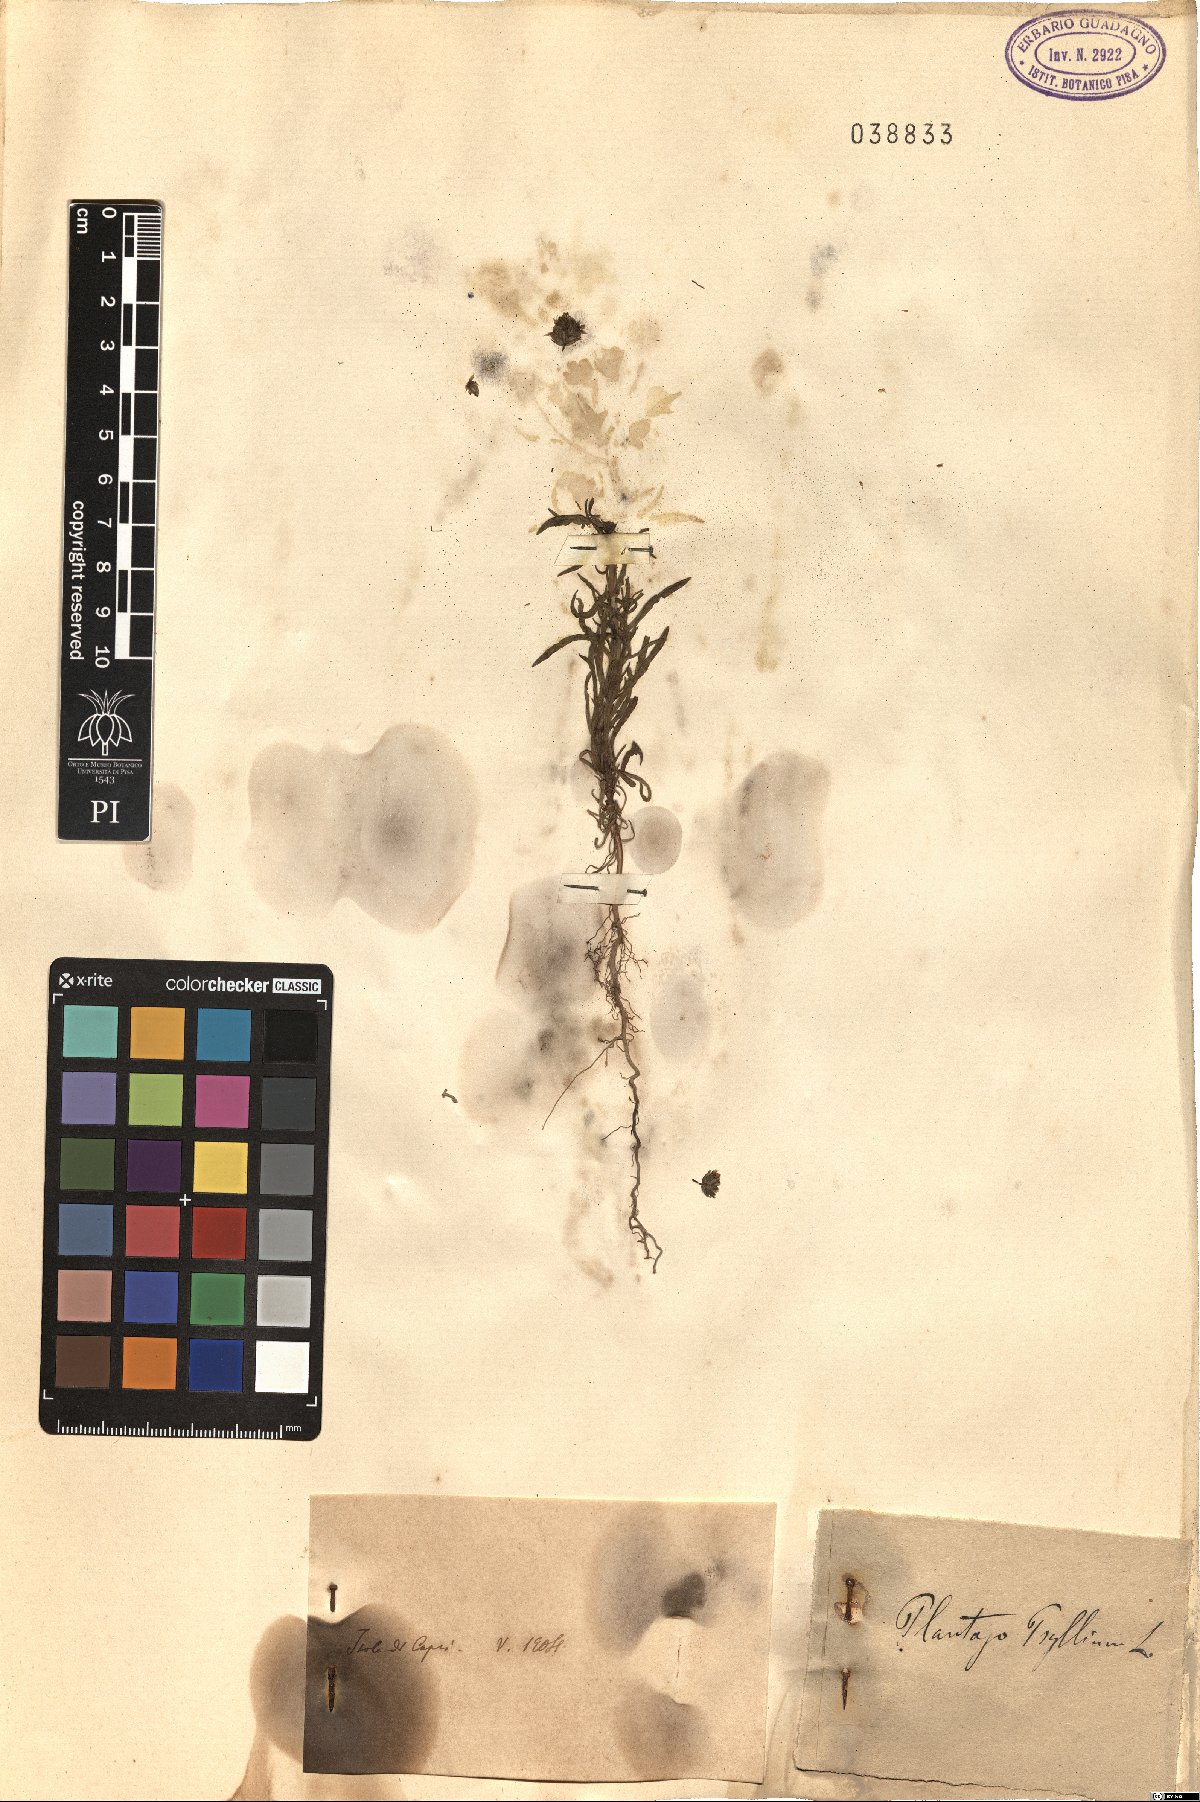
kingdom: Plantae
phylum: Tracheophyta
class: Magnoliopsida
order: Lamiales
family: Plantaginaceae
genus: Plantago
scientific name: Plantago
